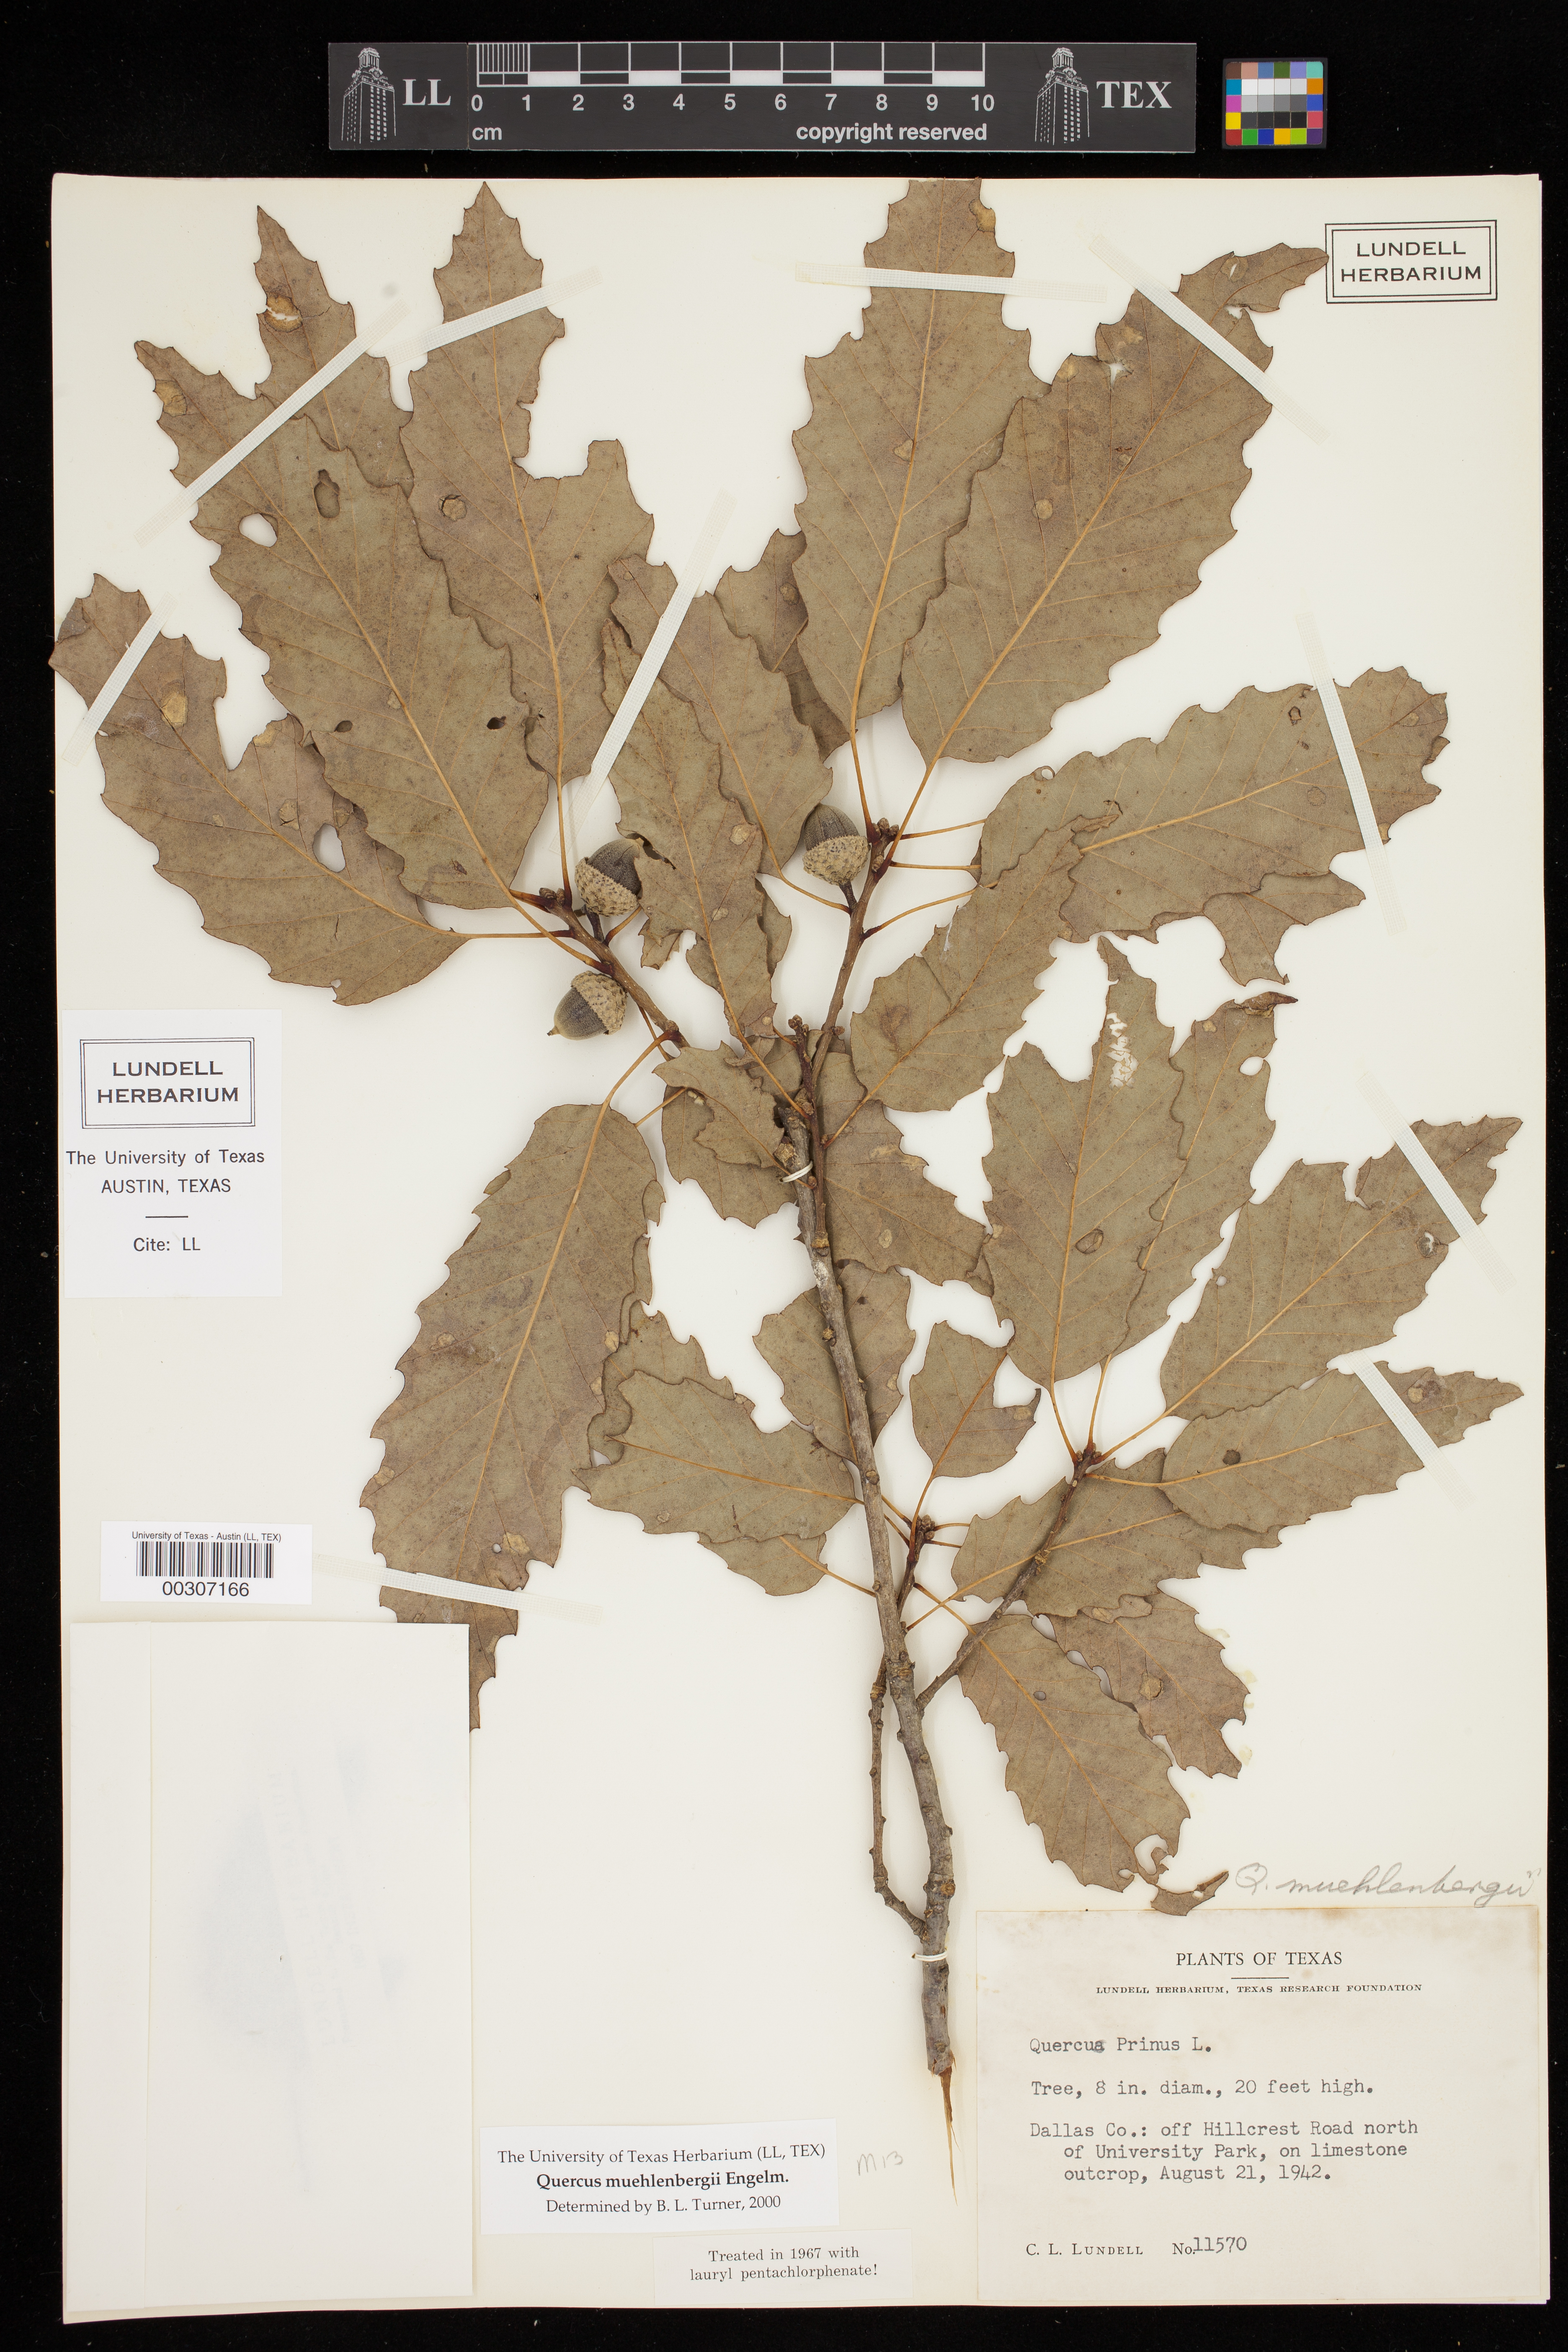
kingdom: Plantae
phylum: Tracheophyta
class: Magnoliopsida
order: Fagales
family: Fagaceae
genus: Quercus
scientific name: Quercus muehlenbergii
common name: Chinkapin oak
